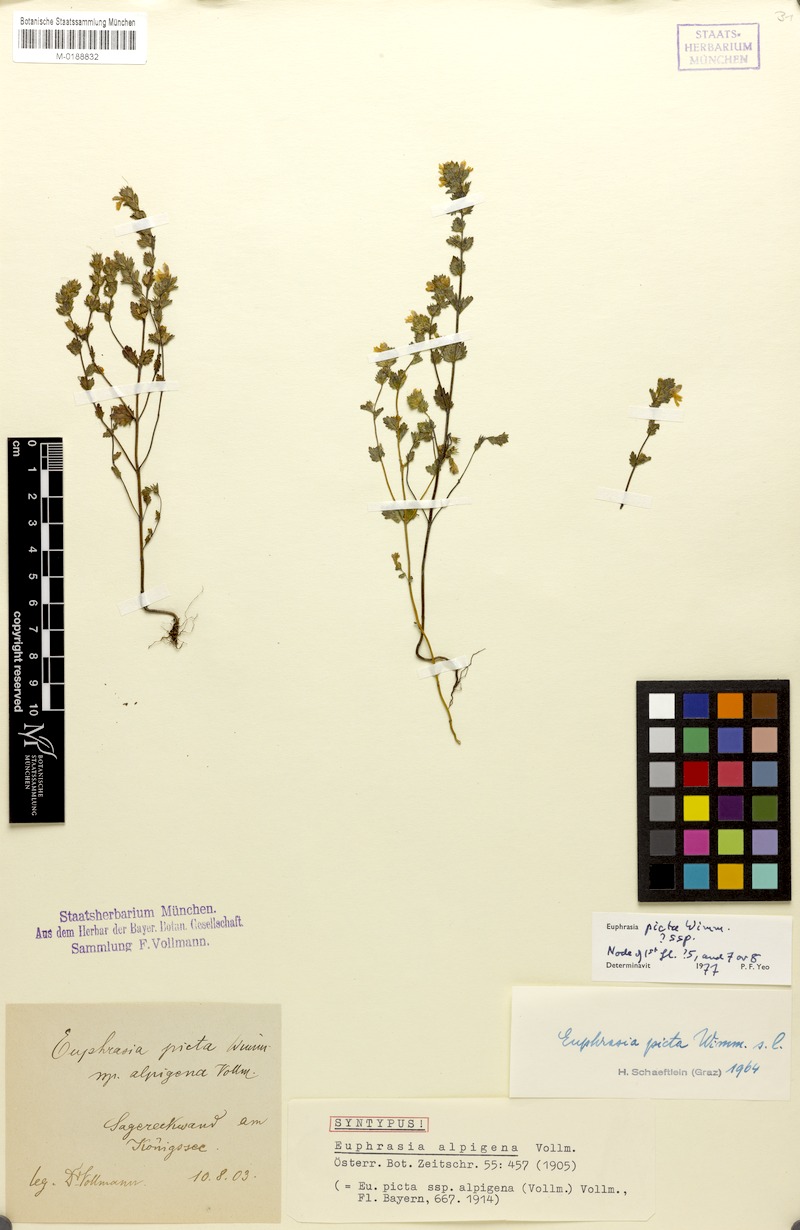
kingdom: Plantae
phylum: Tracheophyta
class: Magnoliopsida
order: Lamiales
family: Orobanchaceae
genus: Euphrasia
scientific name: Euphrasia picta
